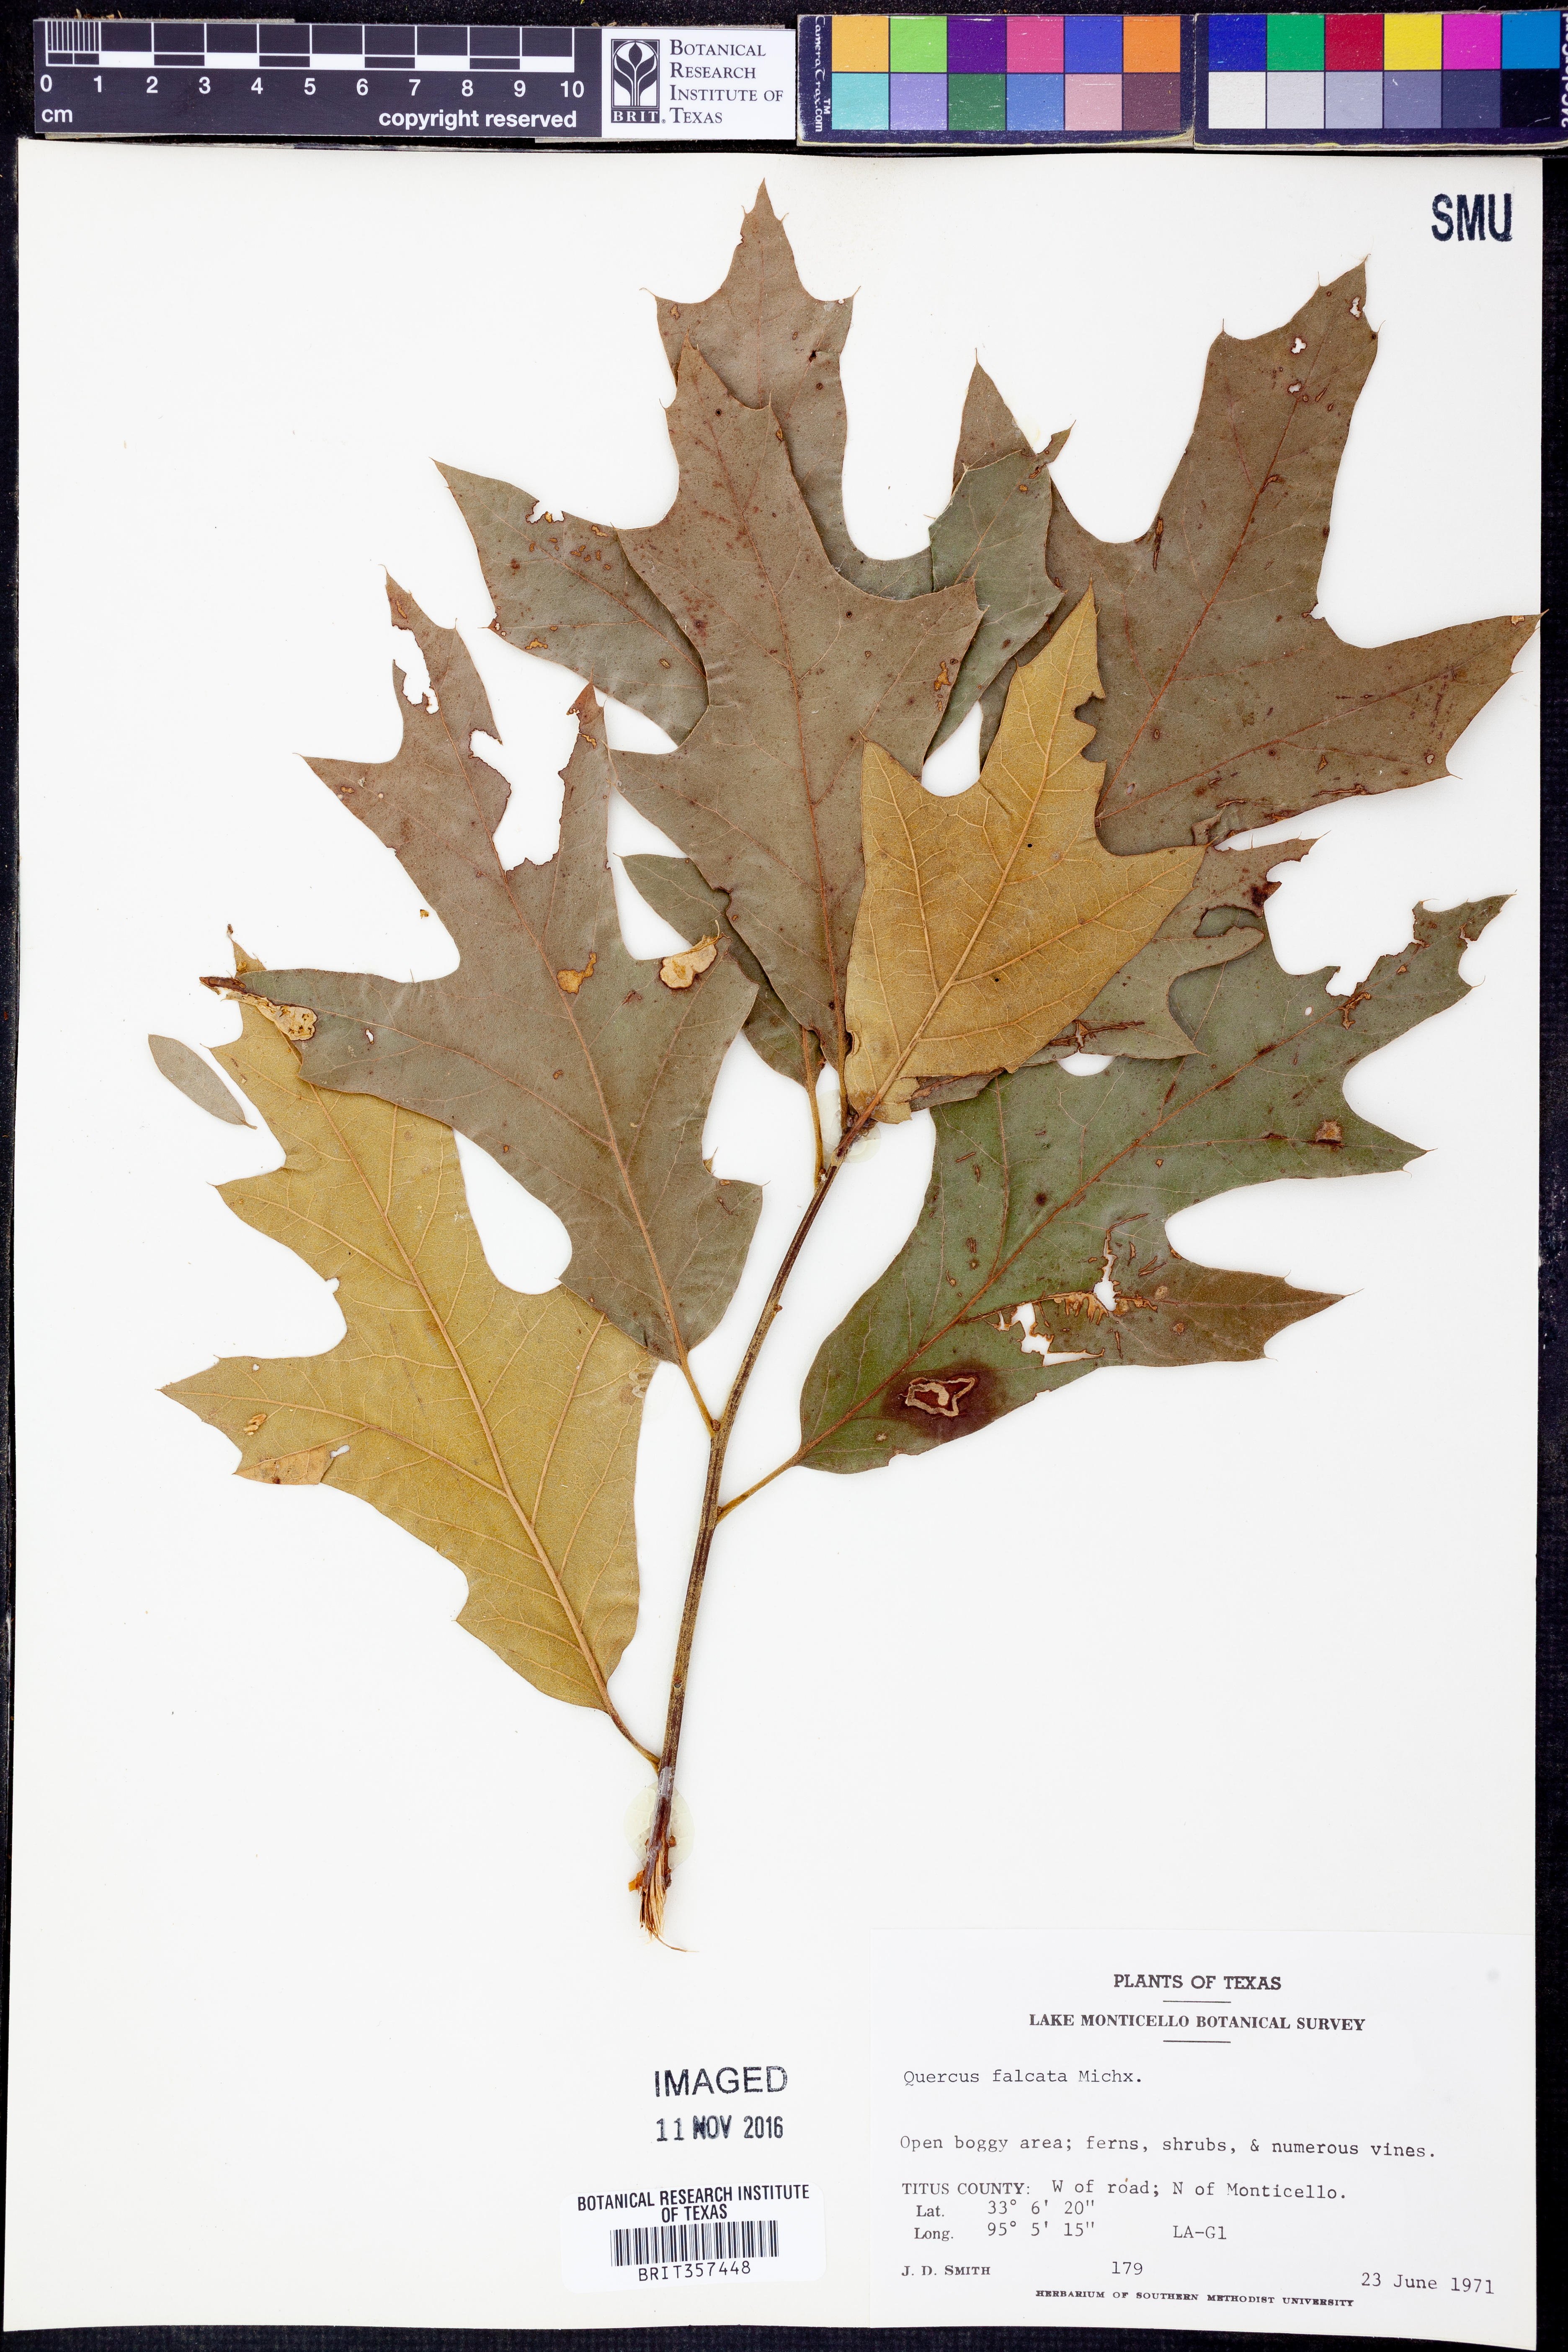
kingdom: Plantae
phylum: Tracheophyta
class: Magnoliopsida
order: Fagales
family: Fagaceae
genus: Quercus
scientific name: Quercus falcata
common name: Southern red oak
